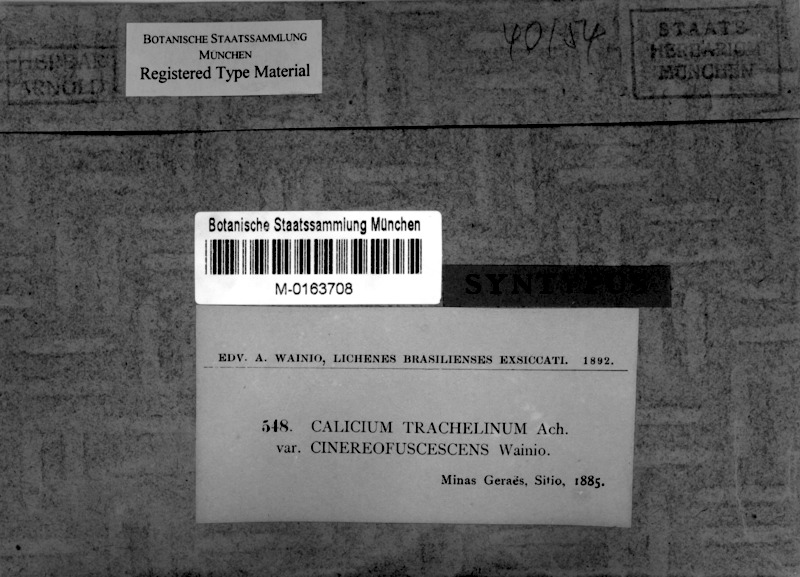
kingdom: Fungi
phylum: Ascomycota
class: Lecanoromycetes
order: Caliciales
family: Caliciaceae
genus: Calicium
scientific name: Calicium salicinum
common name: Rusted stubble lichen
